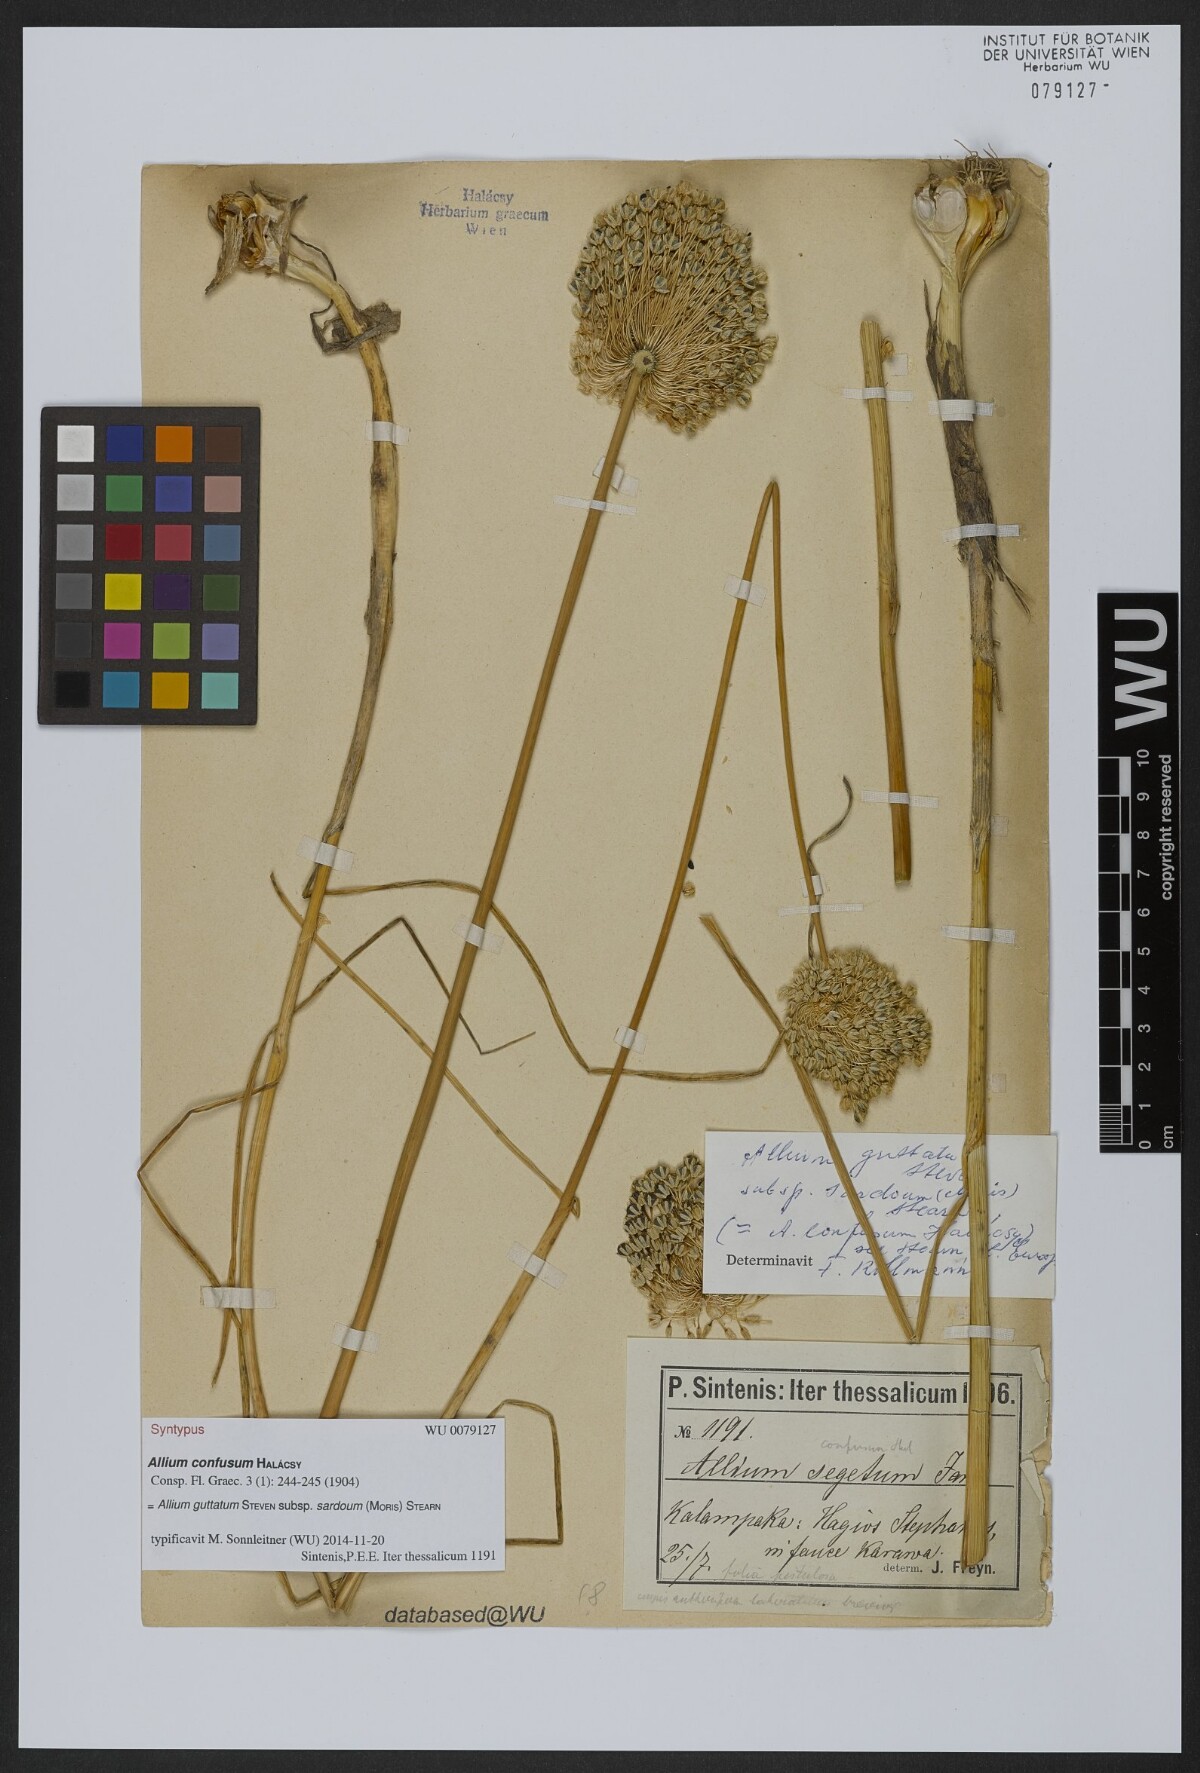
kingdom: Plantae
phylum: Tracheophyta
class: Liliopsida
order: Asparagales
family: Amaryllidaceae
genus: Allium
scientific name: Allium sardoum
